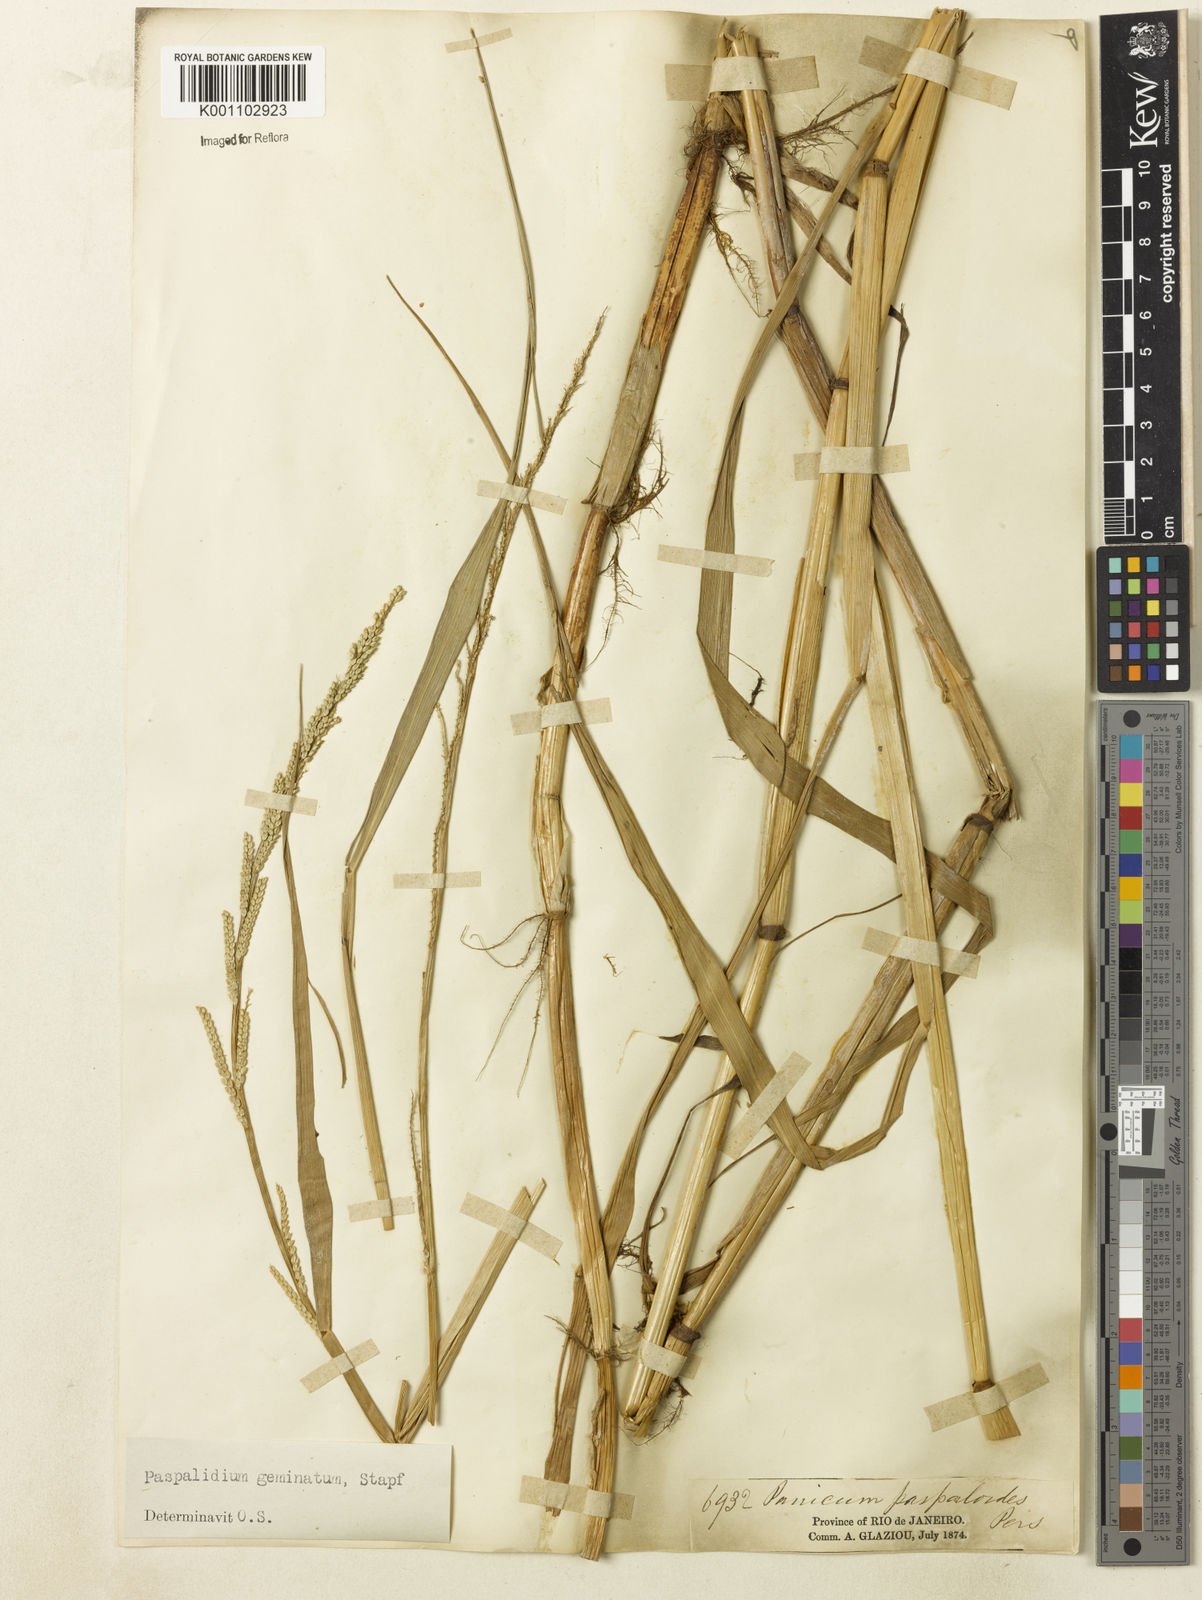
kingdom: Plantae
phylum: Tracheophyta
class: Liliopsida
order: Poales
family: Poaceae
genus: Setaria
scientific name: Setaria geminata
